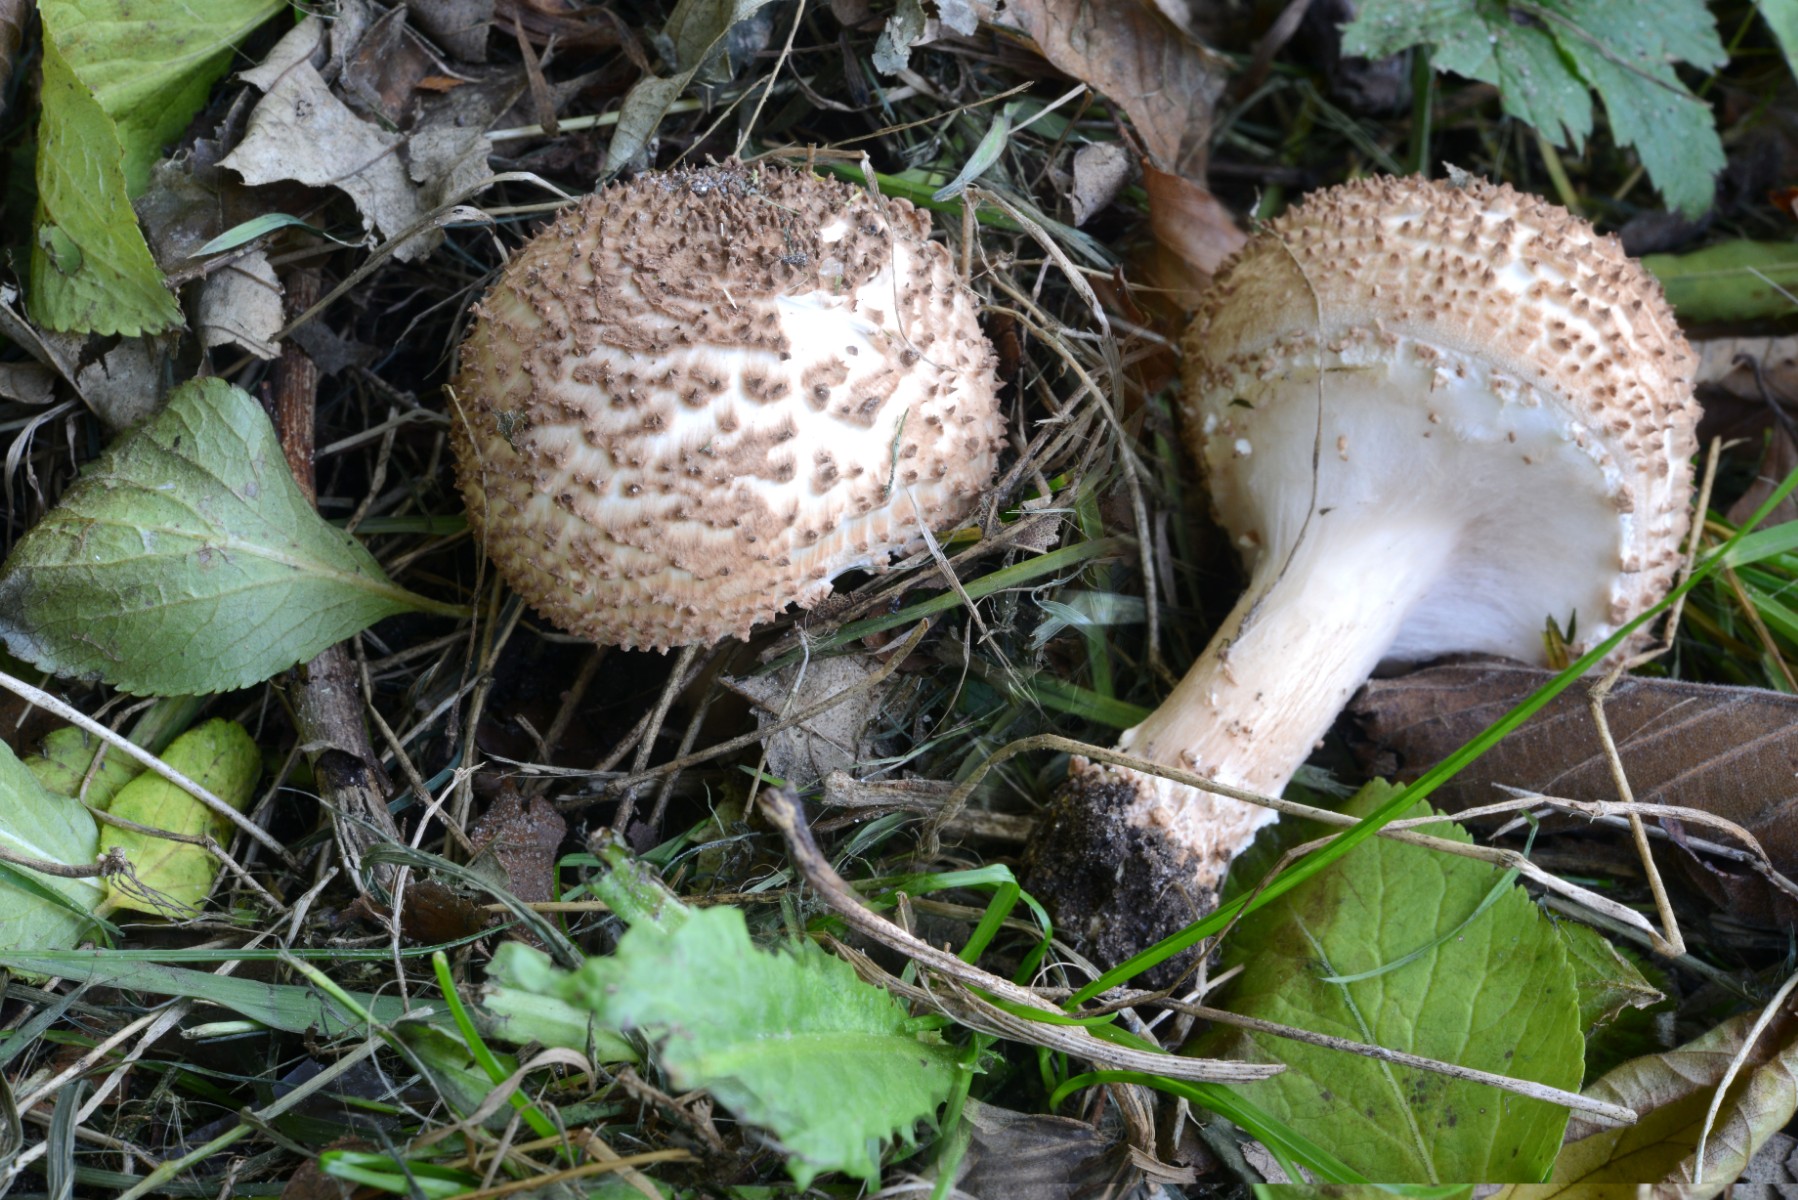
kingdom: Fungi
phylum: Basidiomycota
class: Agaricomycetes
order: Agaricales
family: Agaricaceae
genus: Echinoderma
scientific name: Echinoderma asperum
